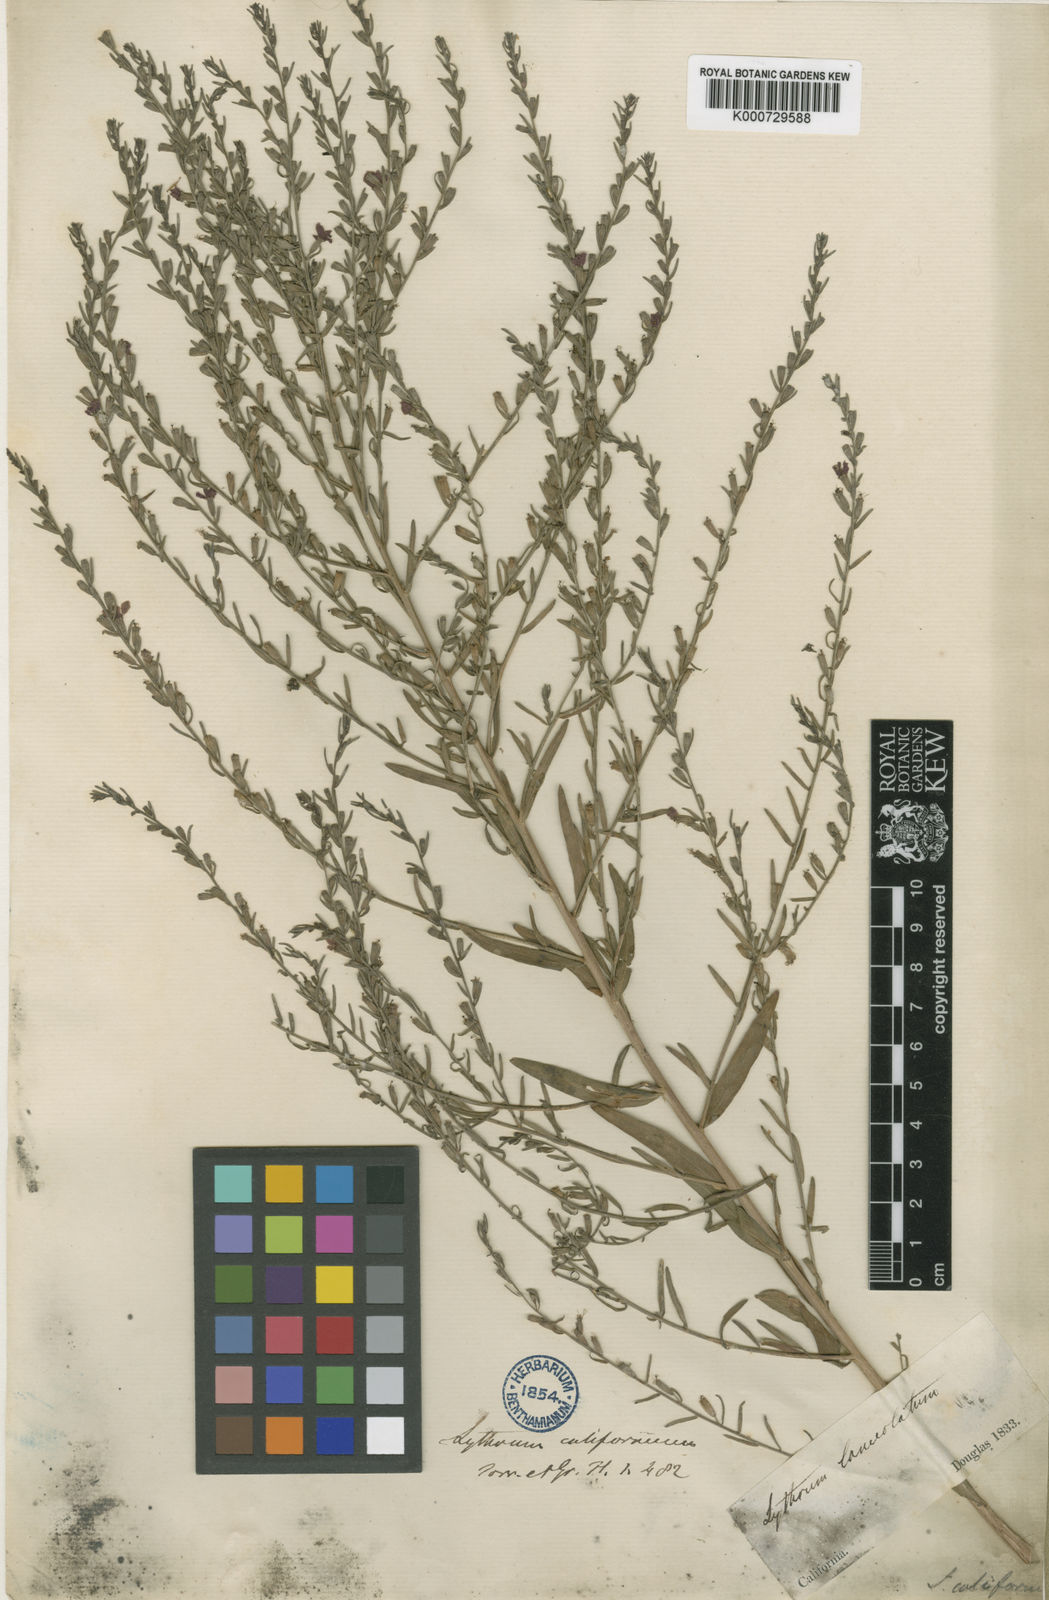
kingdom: Plantae
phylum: Tracheophyta
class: Magnoliopsida
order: Myrtales
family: Lythraceae
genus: Lythrum
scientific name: Lythrum album
